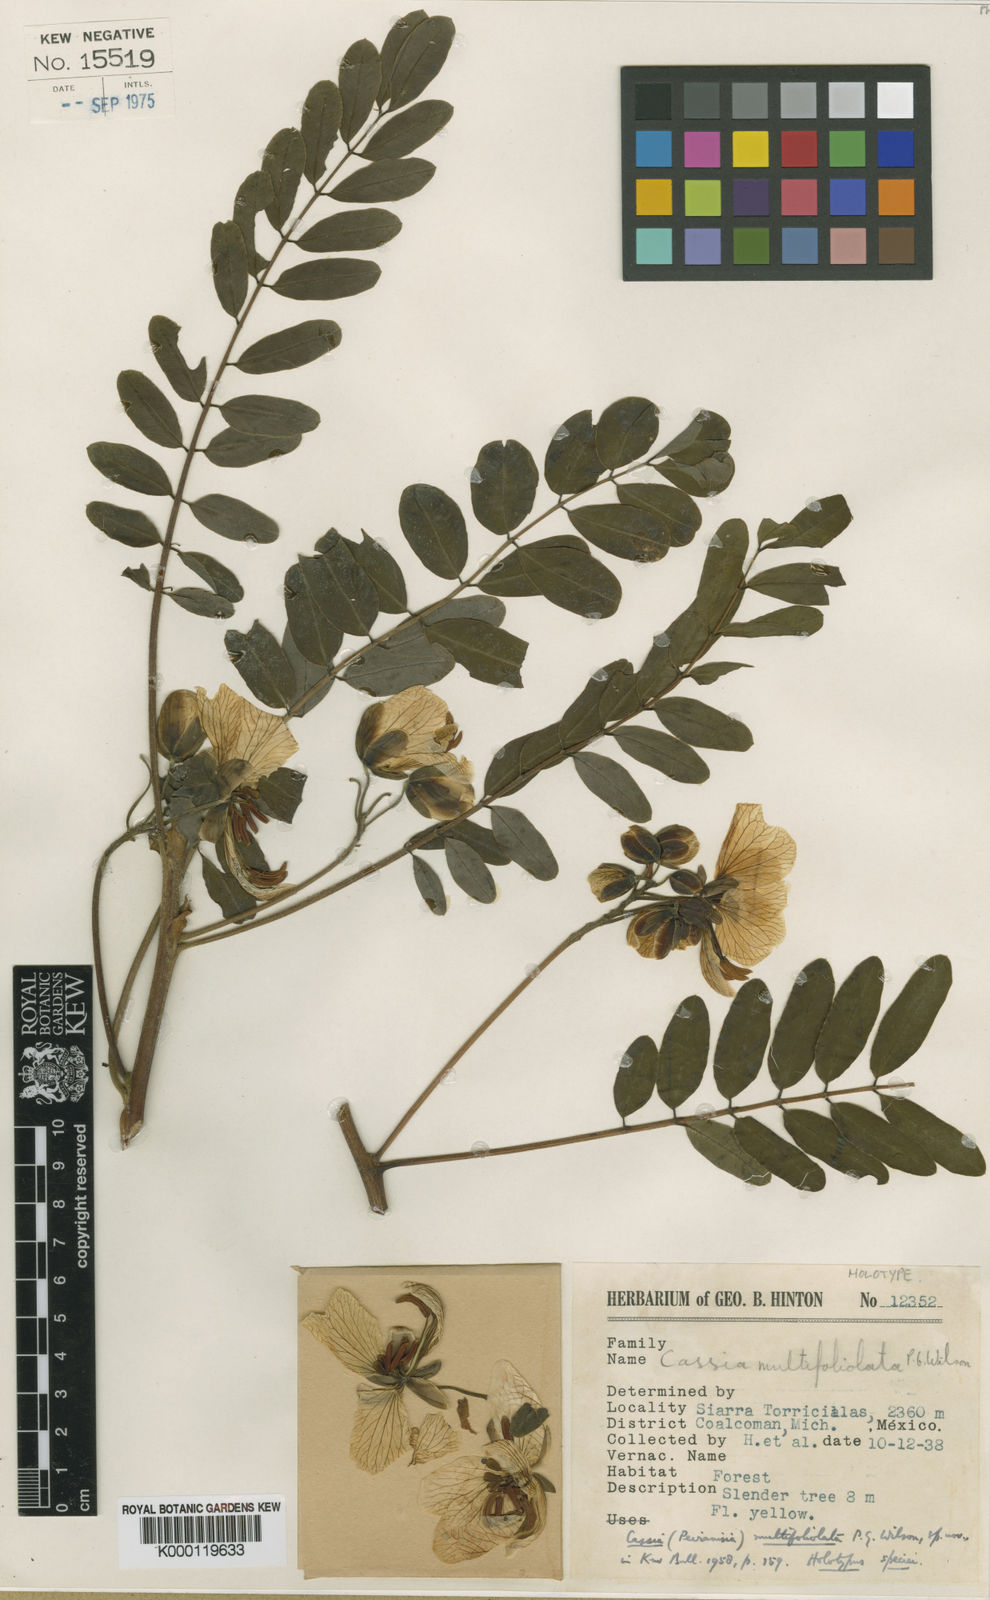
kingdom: Plantae
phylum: Tracheophyta
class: Magnoliopsida
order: Fabales
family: Fabaceae
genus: Senna
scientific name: Senna multifoliolata
